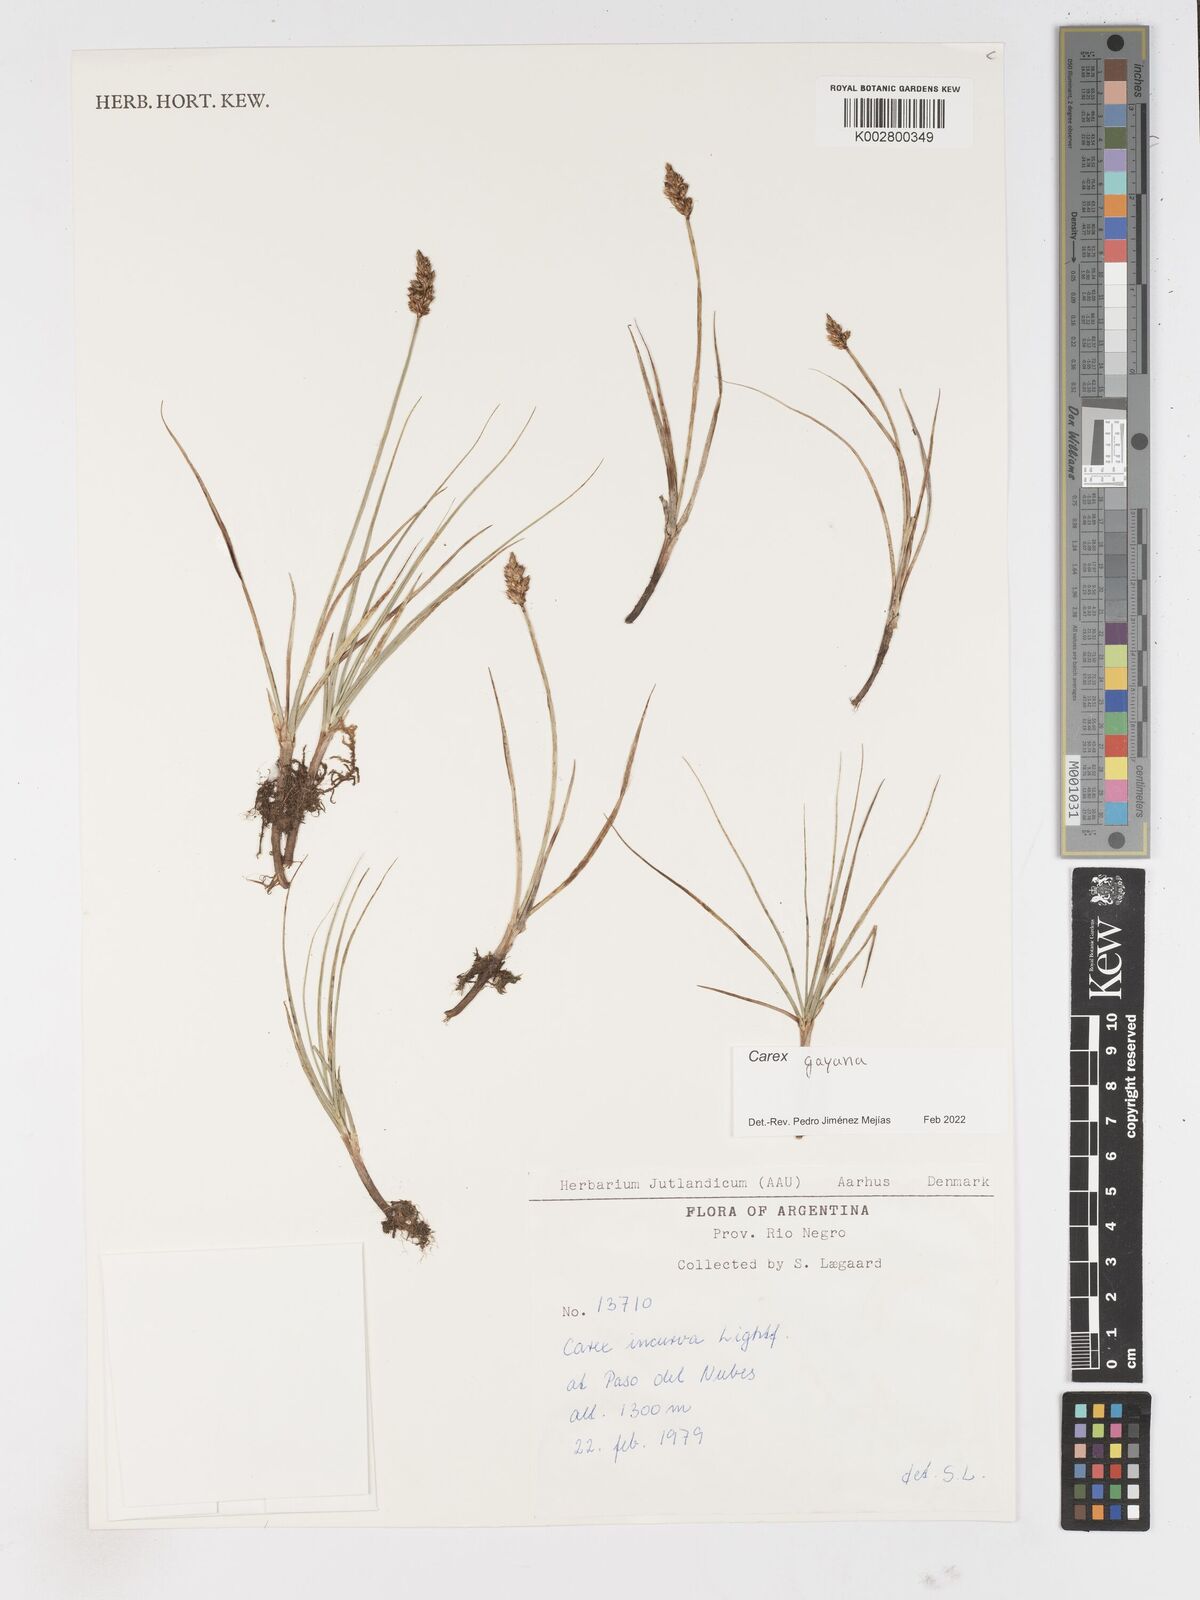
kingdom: Plantae
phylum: Tracheophyta
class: Liliopsida
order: Poales
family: Cyperaceae
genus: Carex
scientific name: Carex gayana
